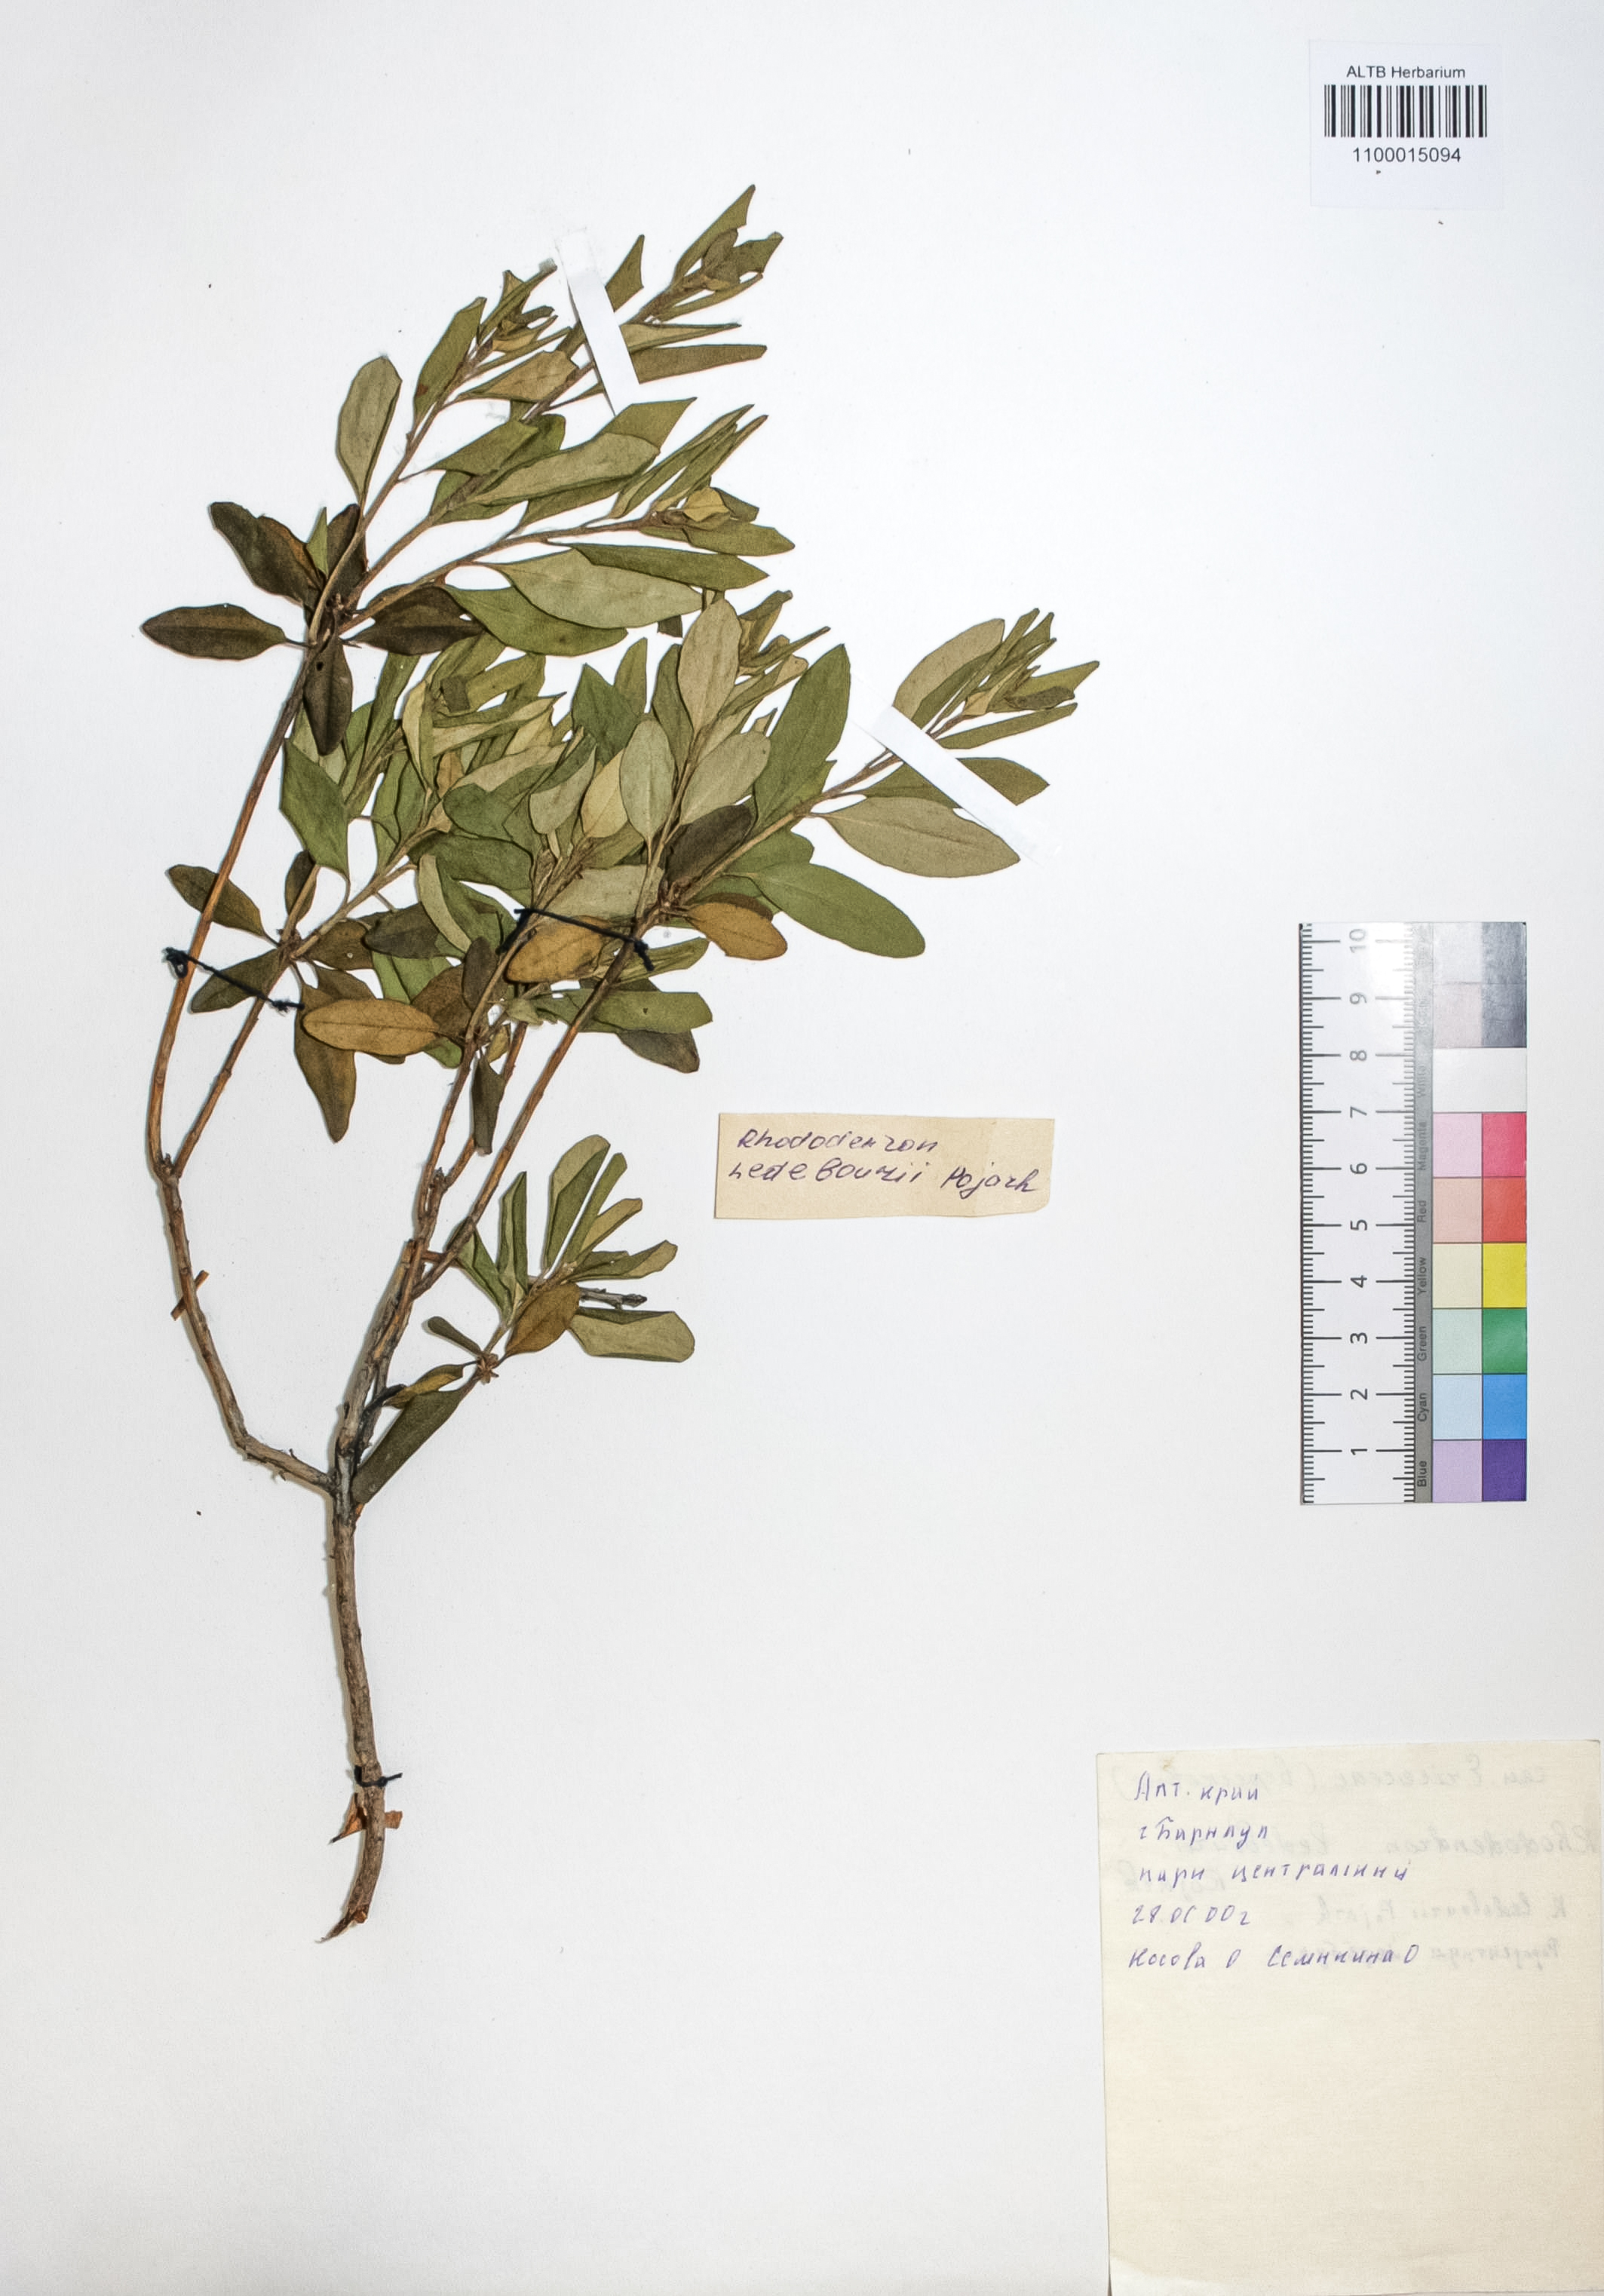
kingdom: Plantae
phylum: Tracheophyta
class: Magnoliopsida
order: Ericales
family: Ericaceae
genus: Rhododendron
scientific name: Rhododendron dauricum
